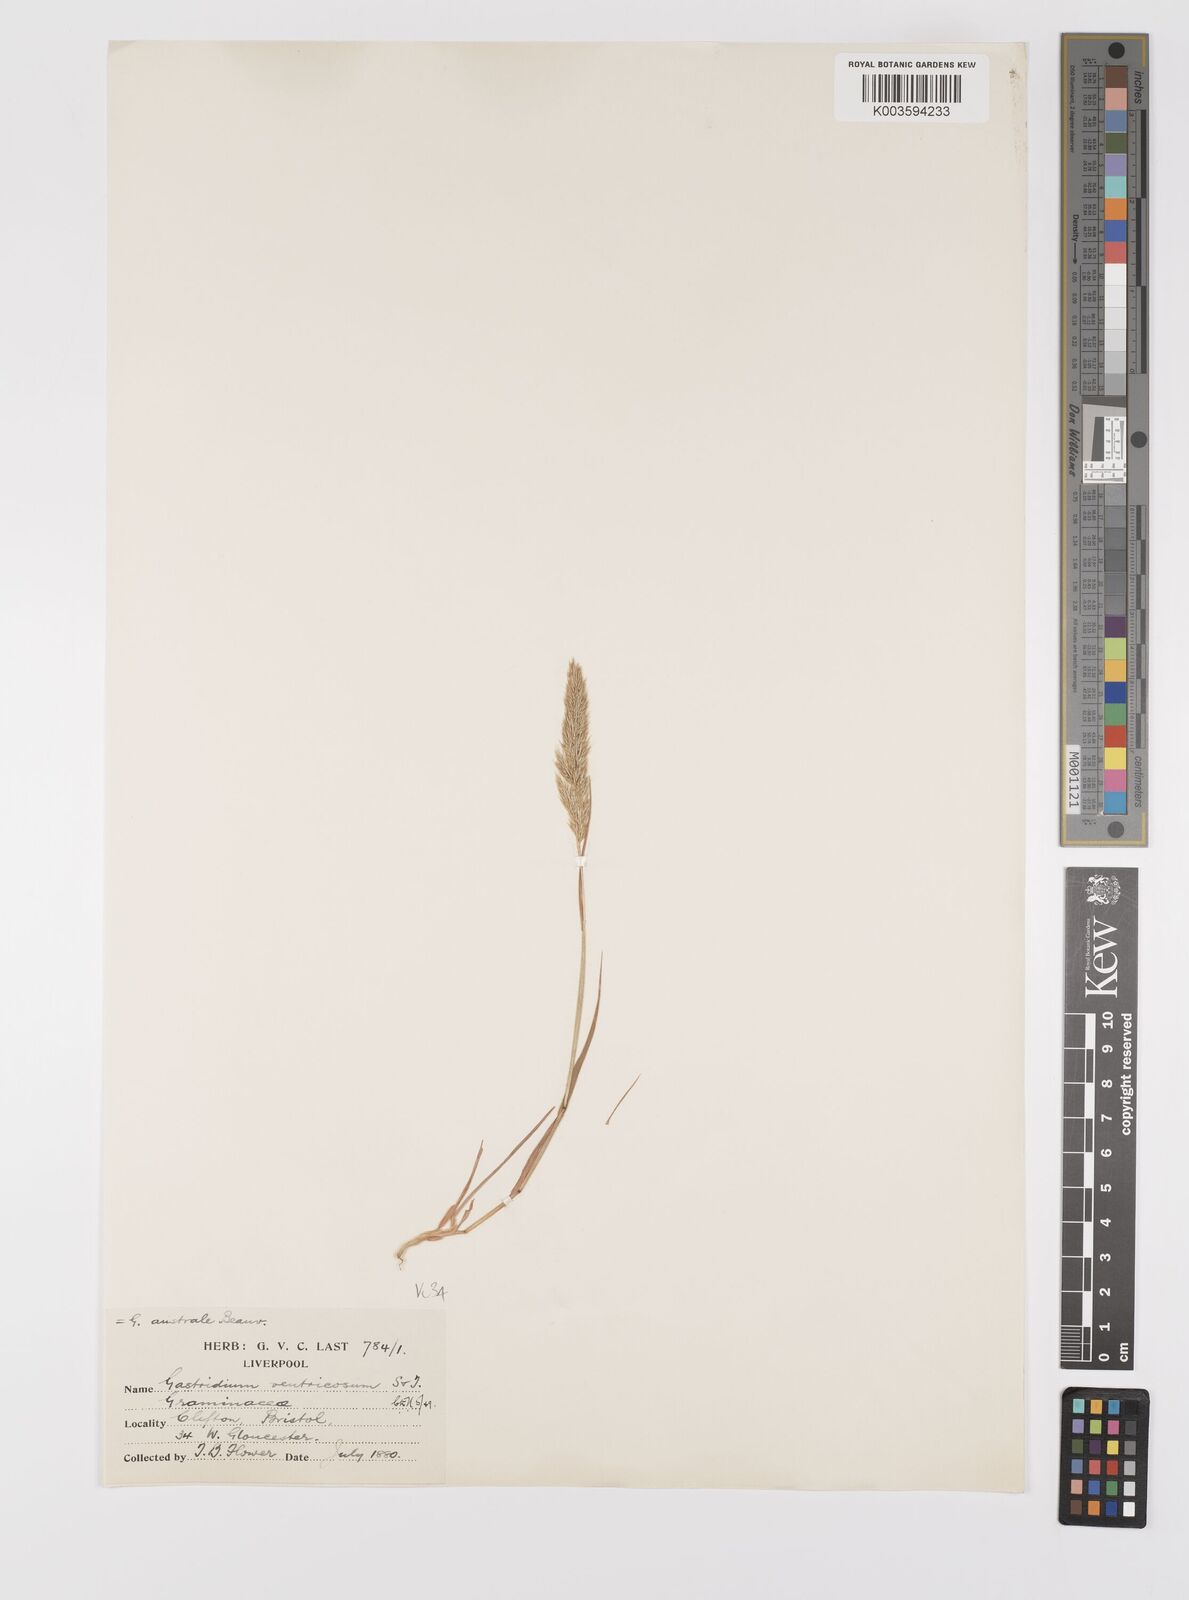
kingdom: Plantae
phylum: Tracheophyta
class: Liliopsida
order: Poales
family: Poaceae
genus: Gastridium
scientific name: Gastridium ventricosum
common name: Nit-grass
